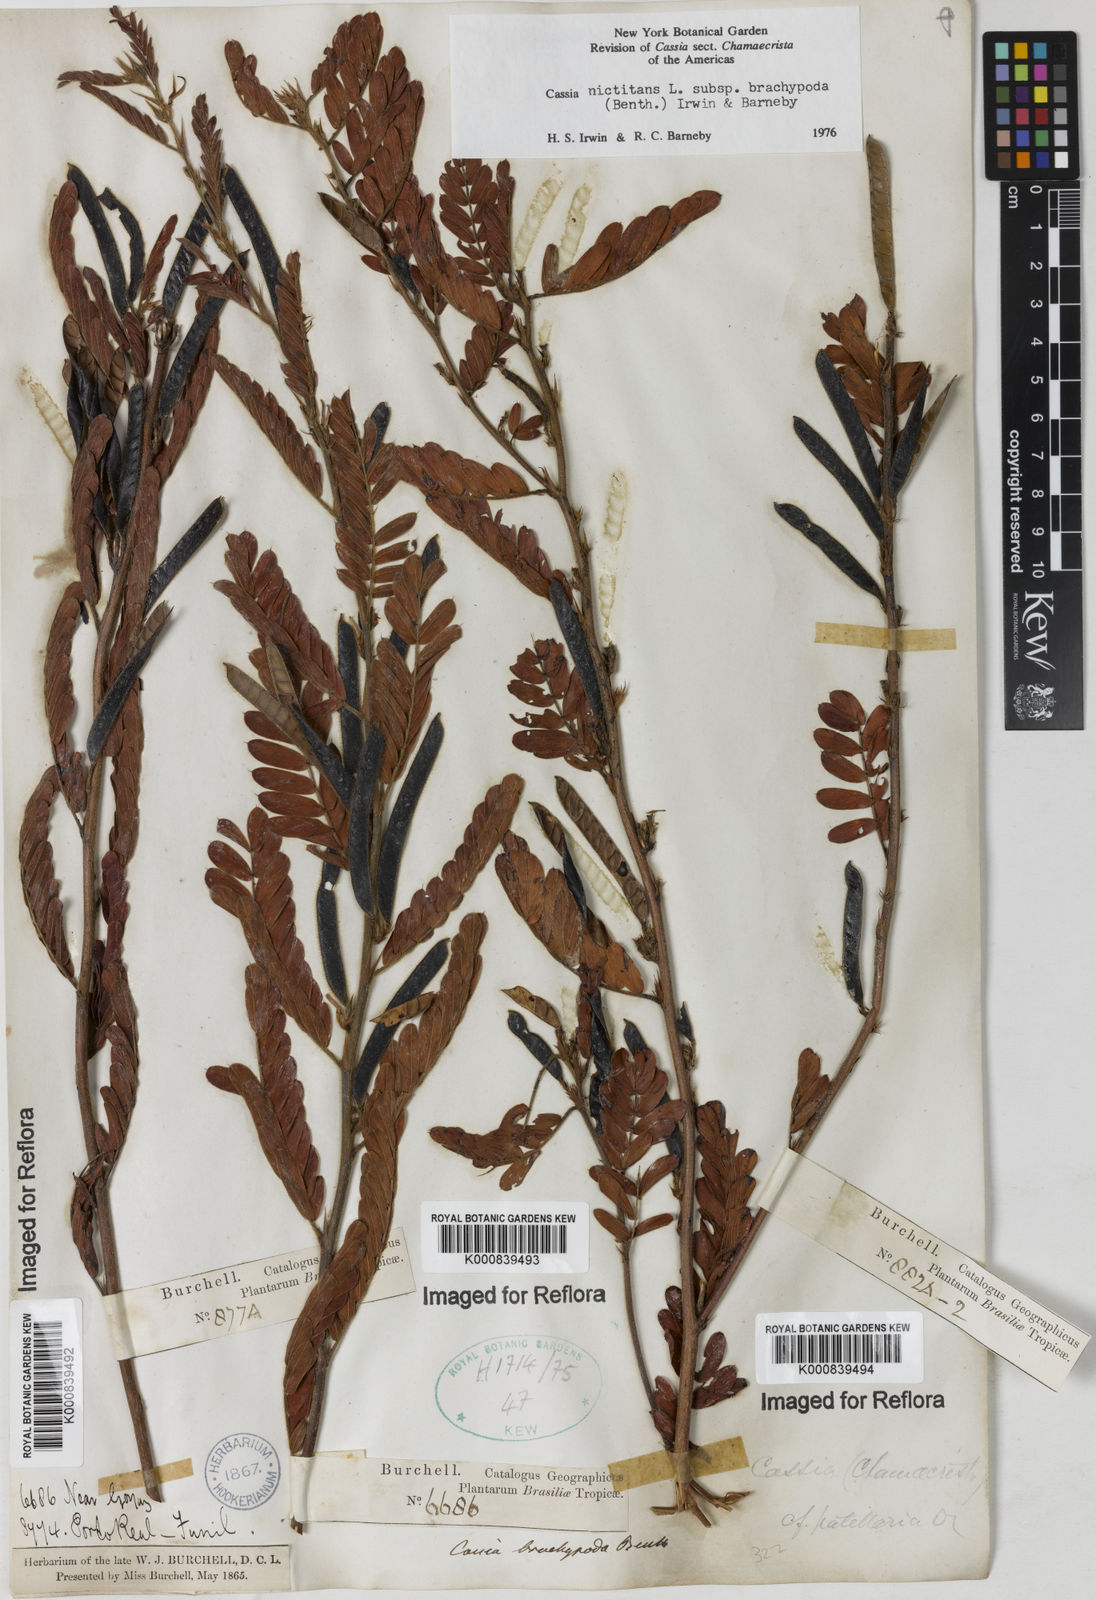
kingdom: Plantae
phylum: Tracheophyta
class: Magnoliopsida
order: Fabales
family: Fabaceae
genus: Chamaecrista
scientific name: Chamaecrista nictitans
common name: Sensitive cassia
